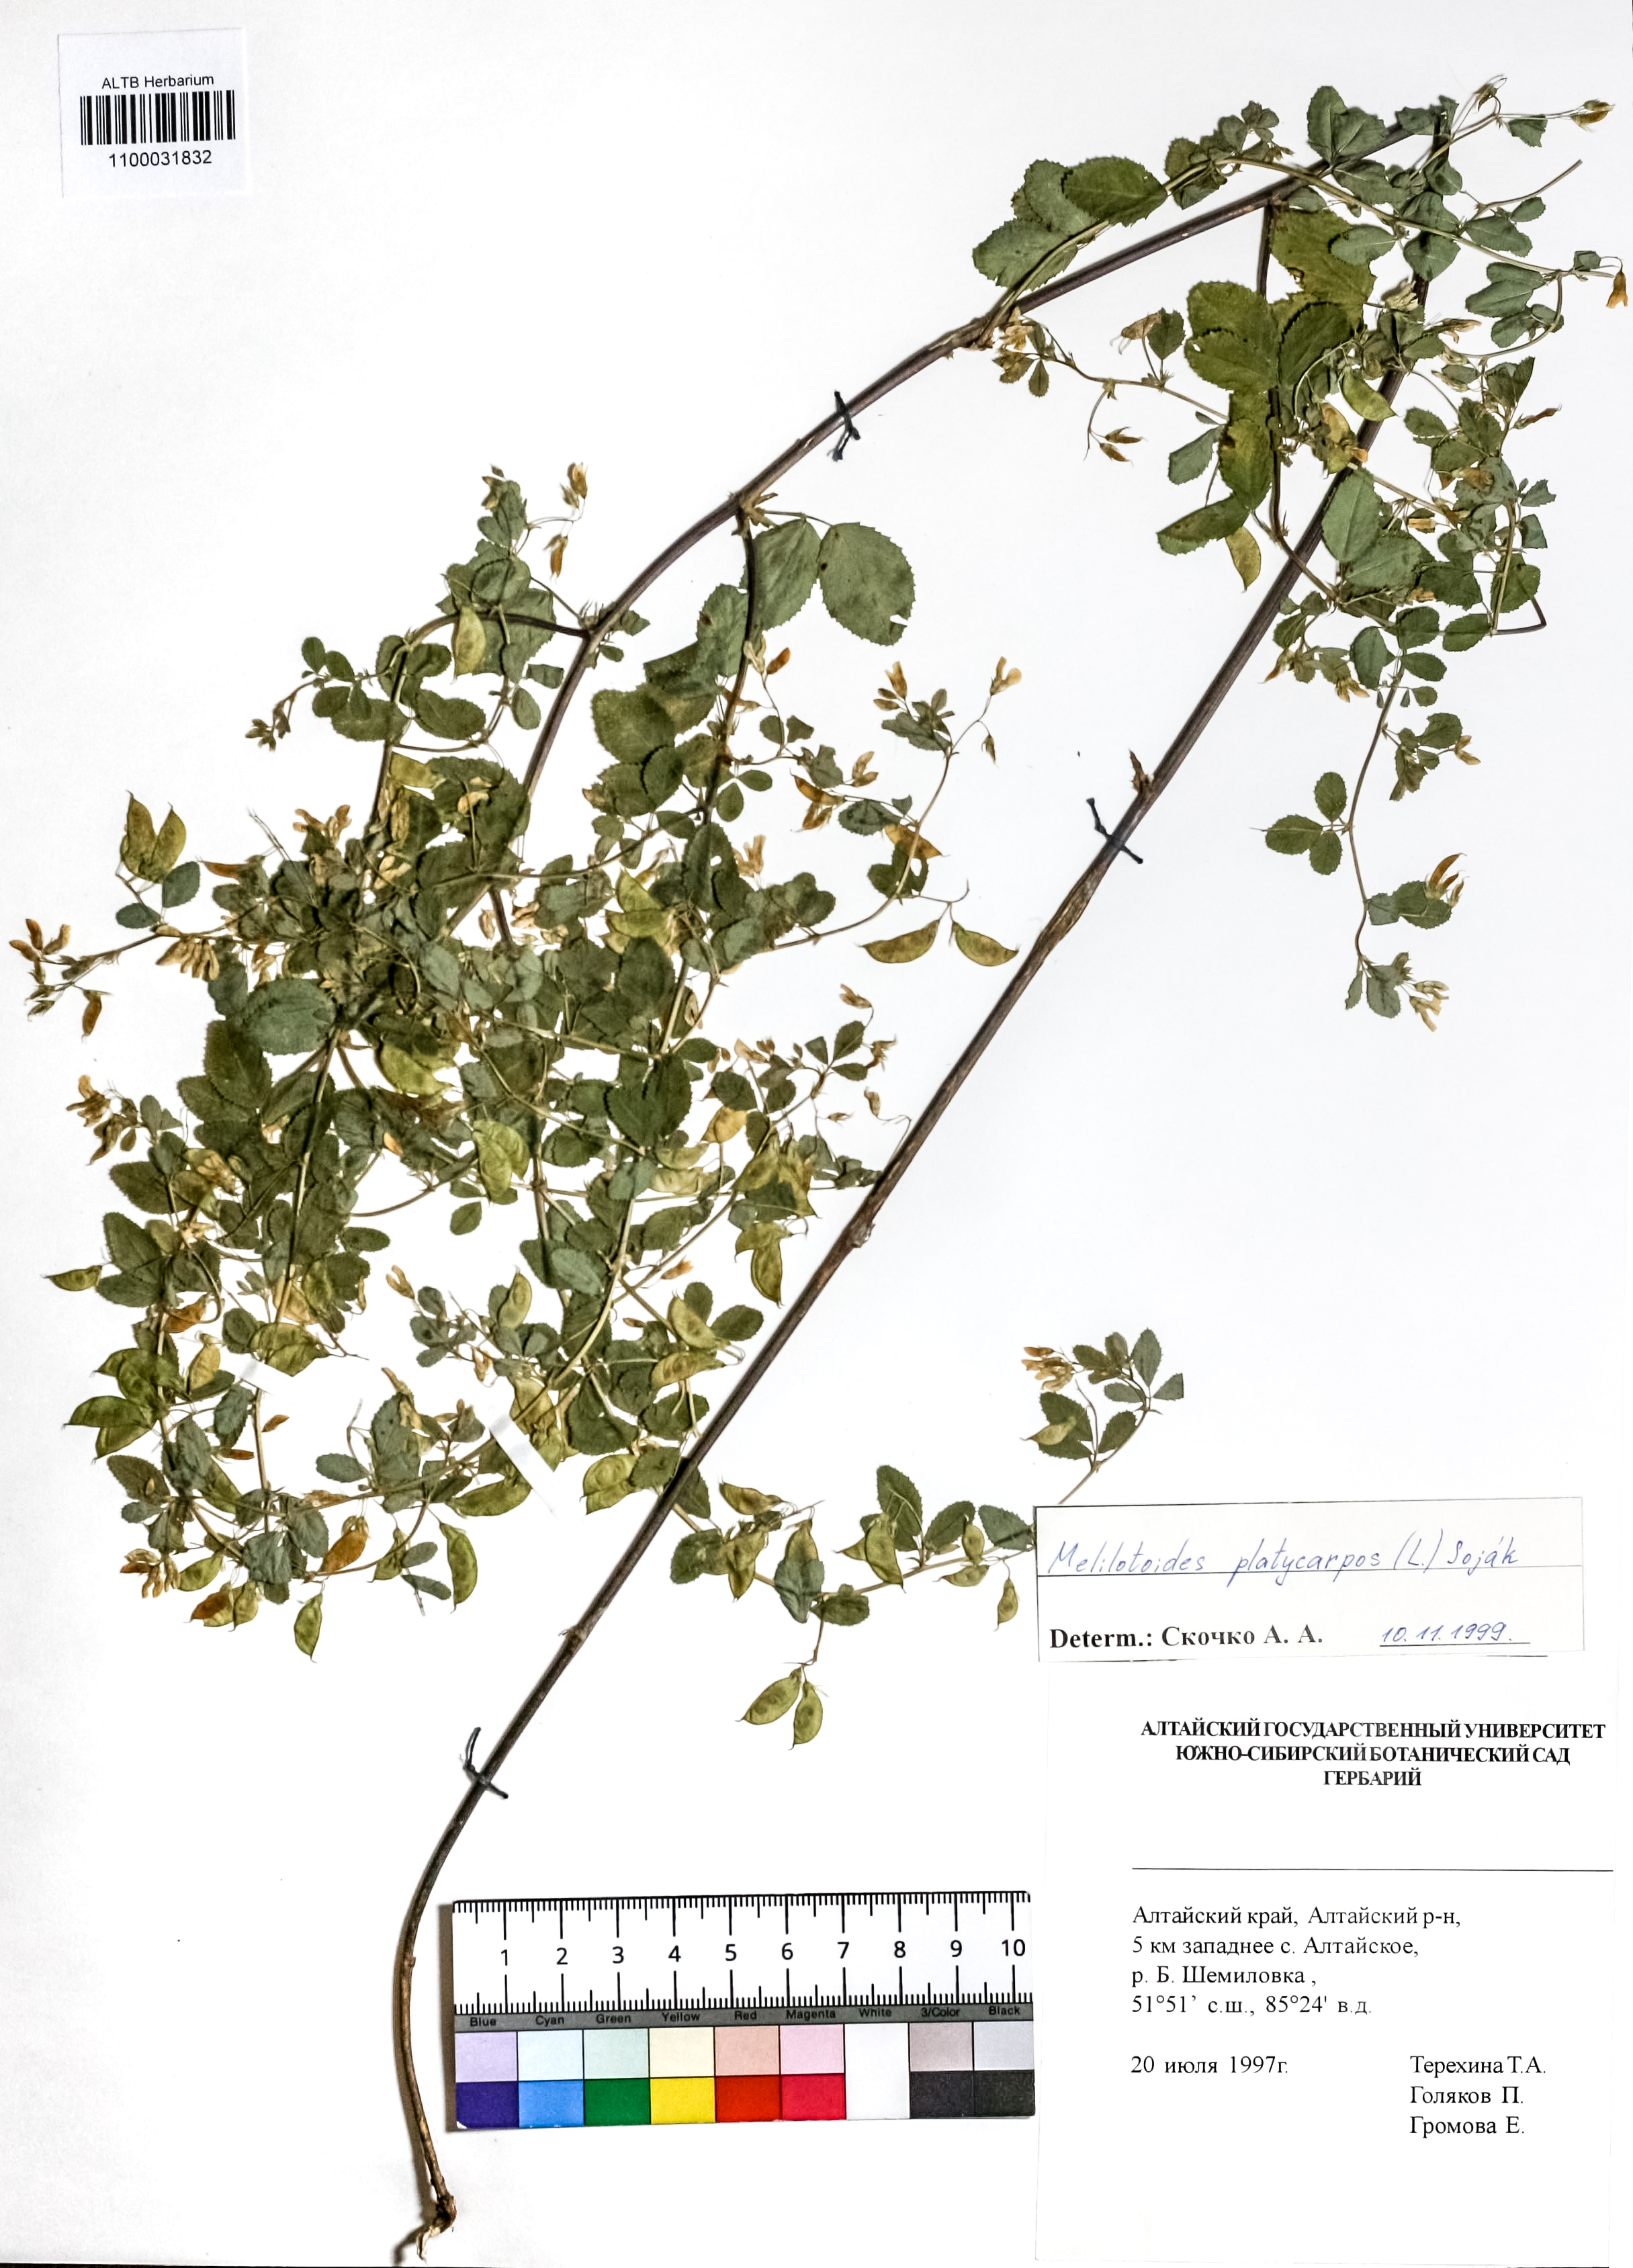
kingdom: Plantae
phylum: Tracheophyta
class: Magnoliopsida
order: Fabales
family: Fabaceae
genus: Medicago
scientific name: Medicago platycarpos
